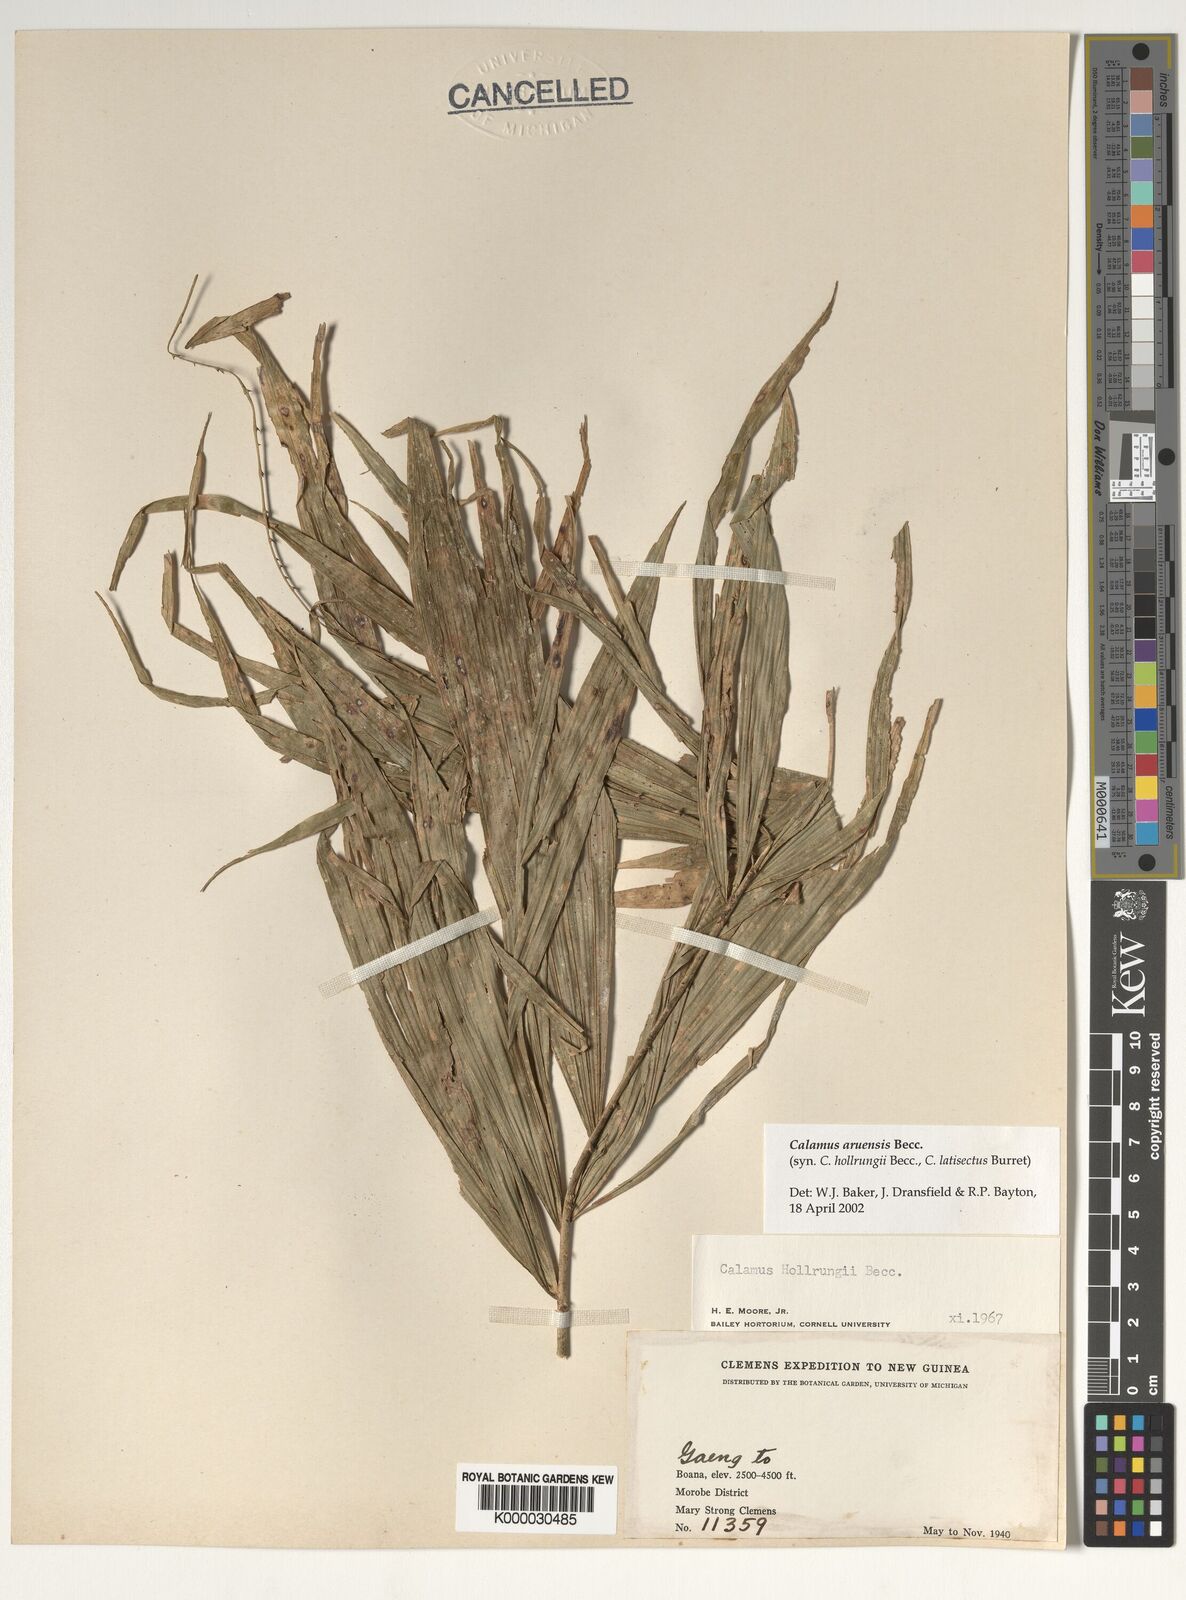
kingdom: Plantae
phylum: Tracheophyta
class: Liliopsida
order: Arecales
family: Arecaceae
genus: Calamus
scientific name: Calamus aruensis
